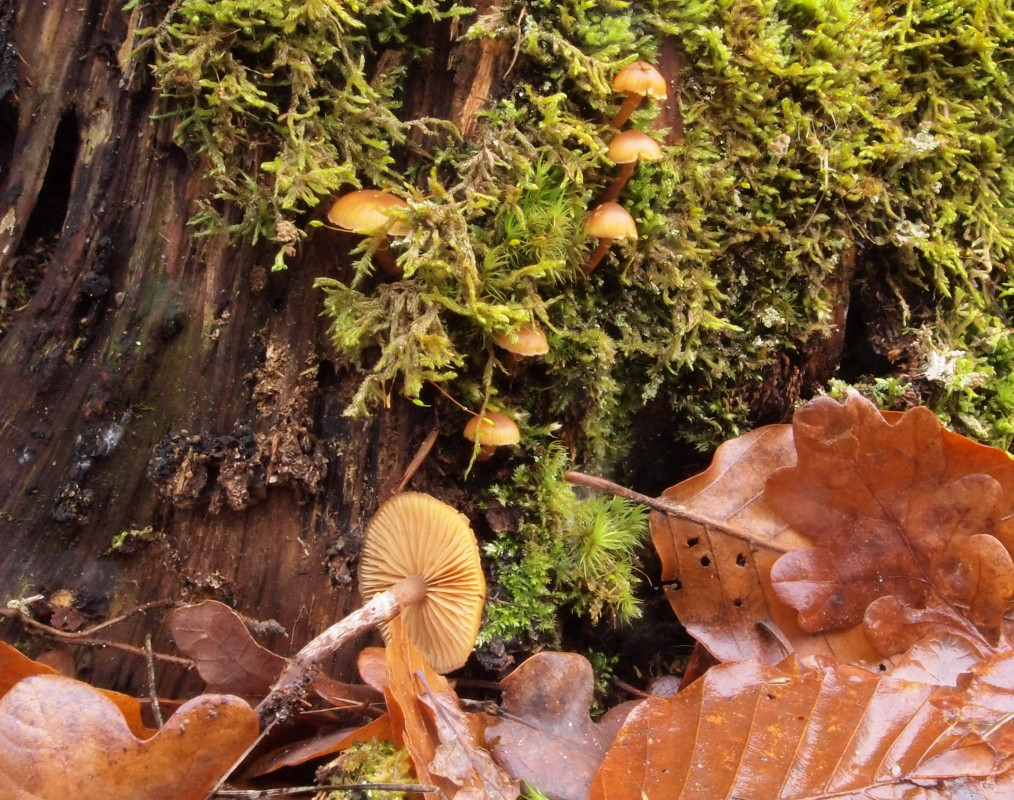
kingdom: Fungi
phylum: Basidiomycota
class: Agaricomycetes
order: Agaricales
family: Hymenogastraceae
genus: Galerina
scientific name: Galerina marginata
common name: randbæltet hjelmhat
